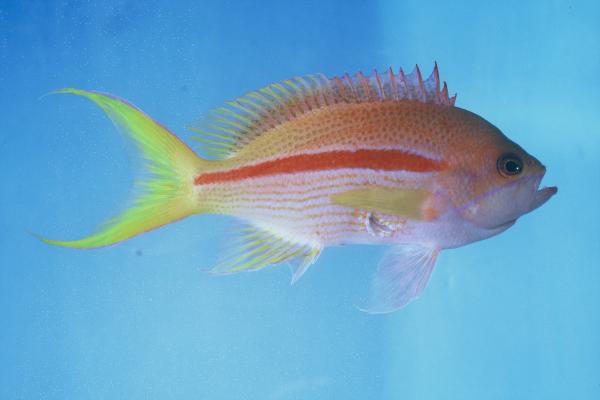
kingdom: Animalia
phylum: Chordata
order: Perciformes
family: Serranidae
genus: Pseudanthias
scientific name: Pseudanthias gibbosus
